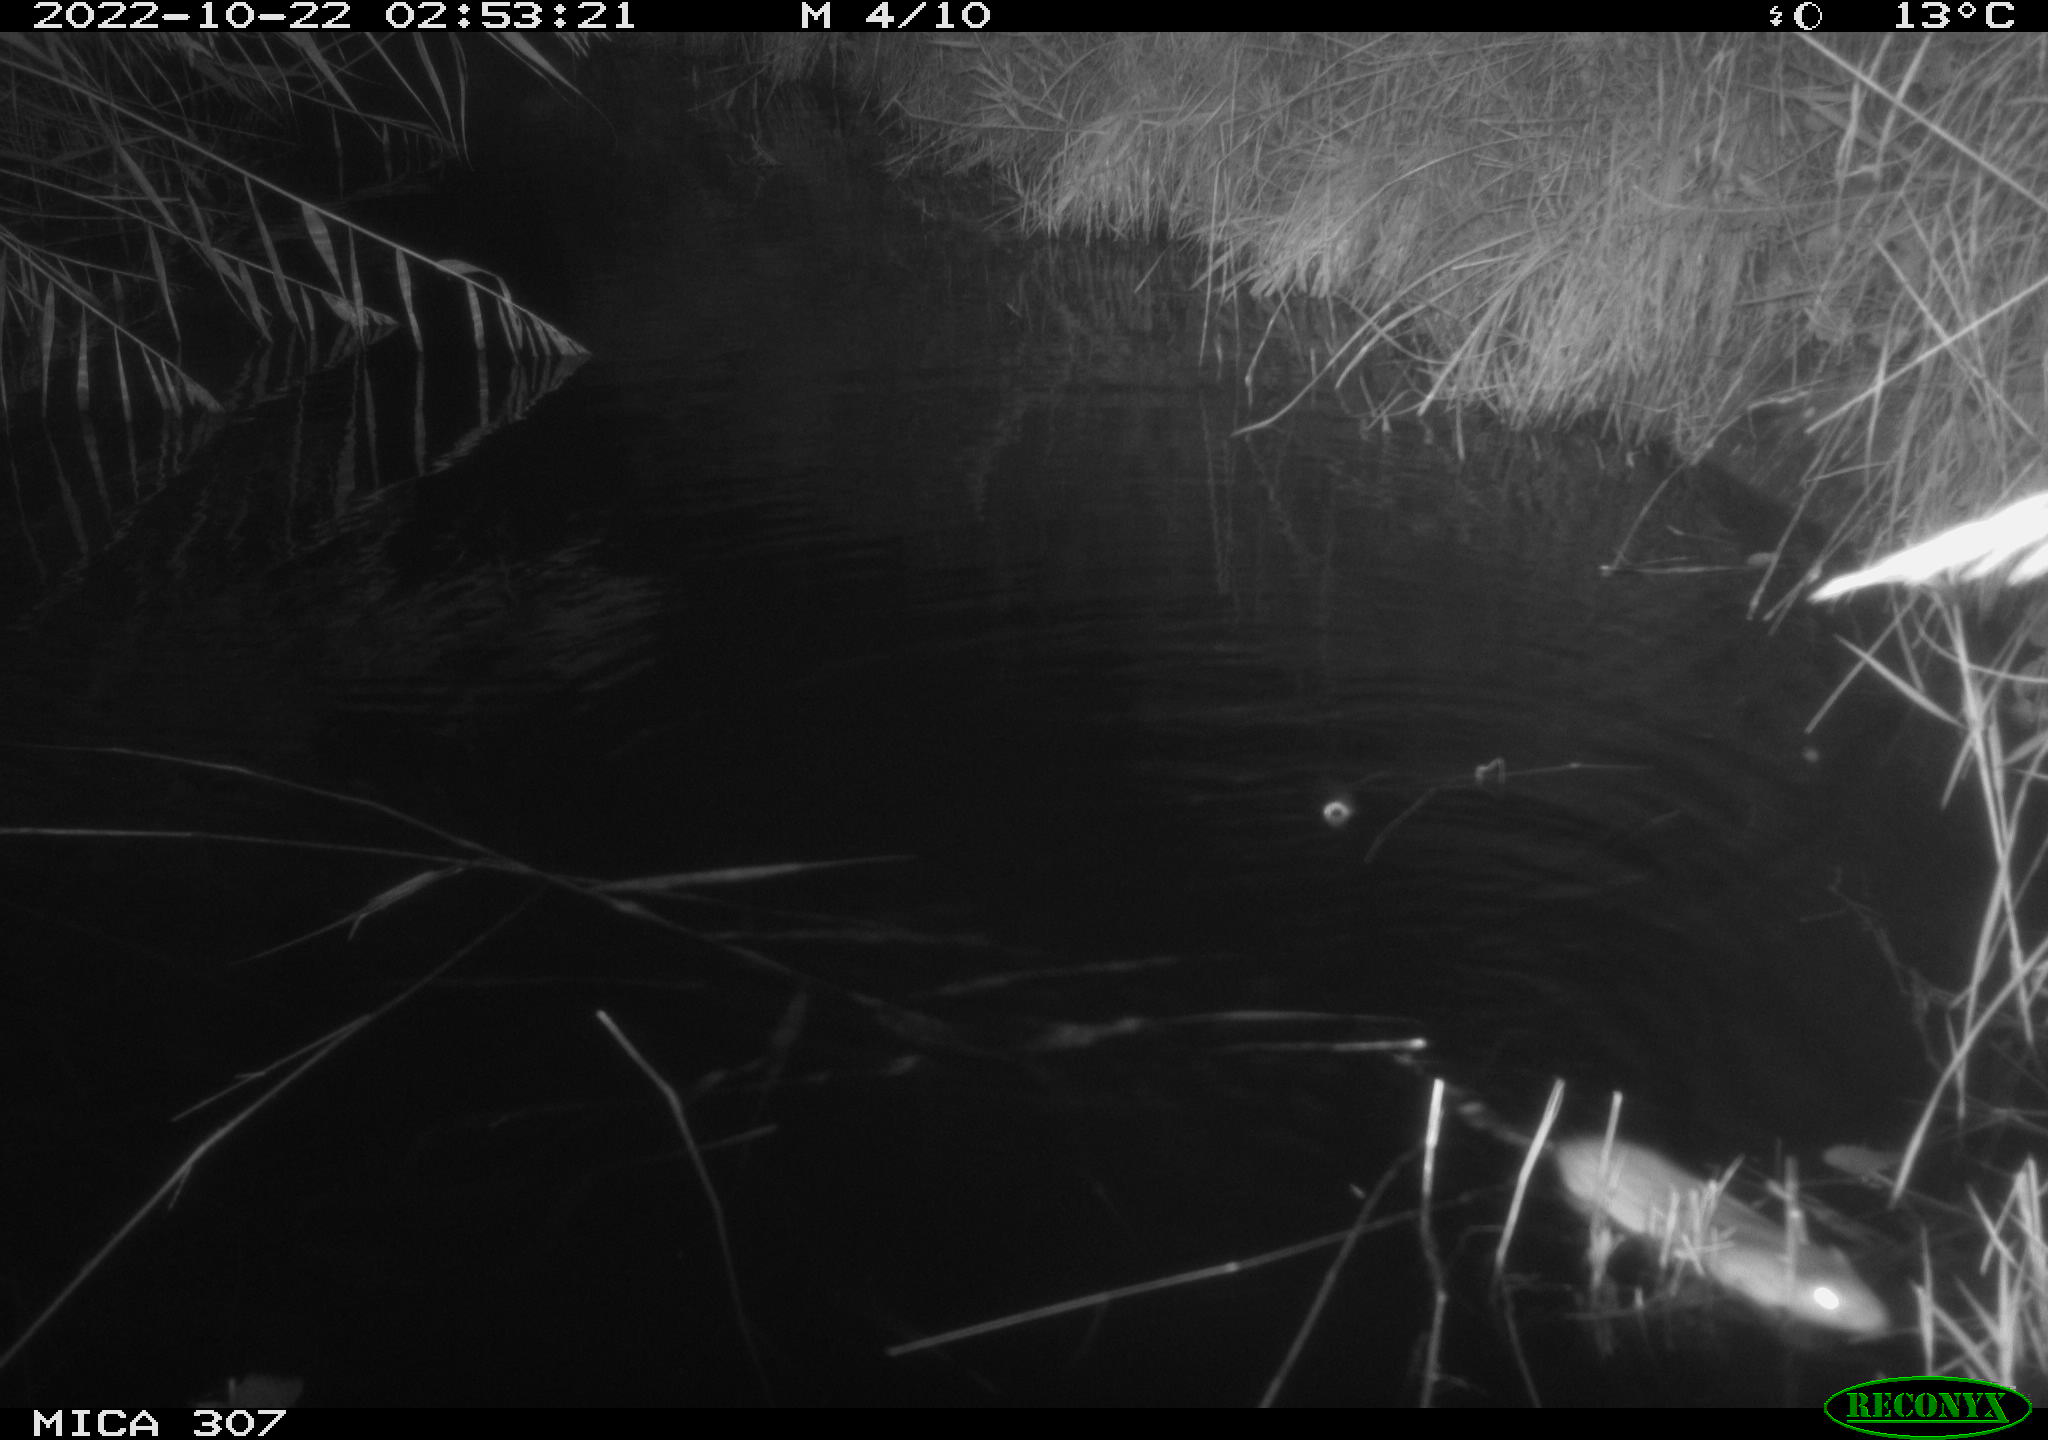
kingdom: Animalia
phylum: Chordata
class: Mammalia
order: Rodentia
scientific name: Rodentia
